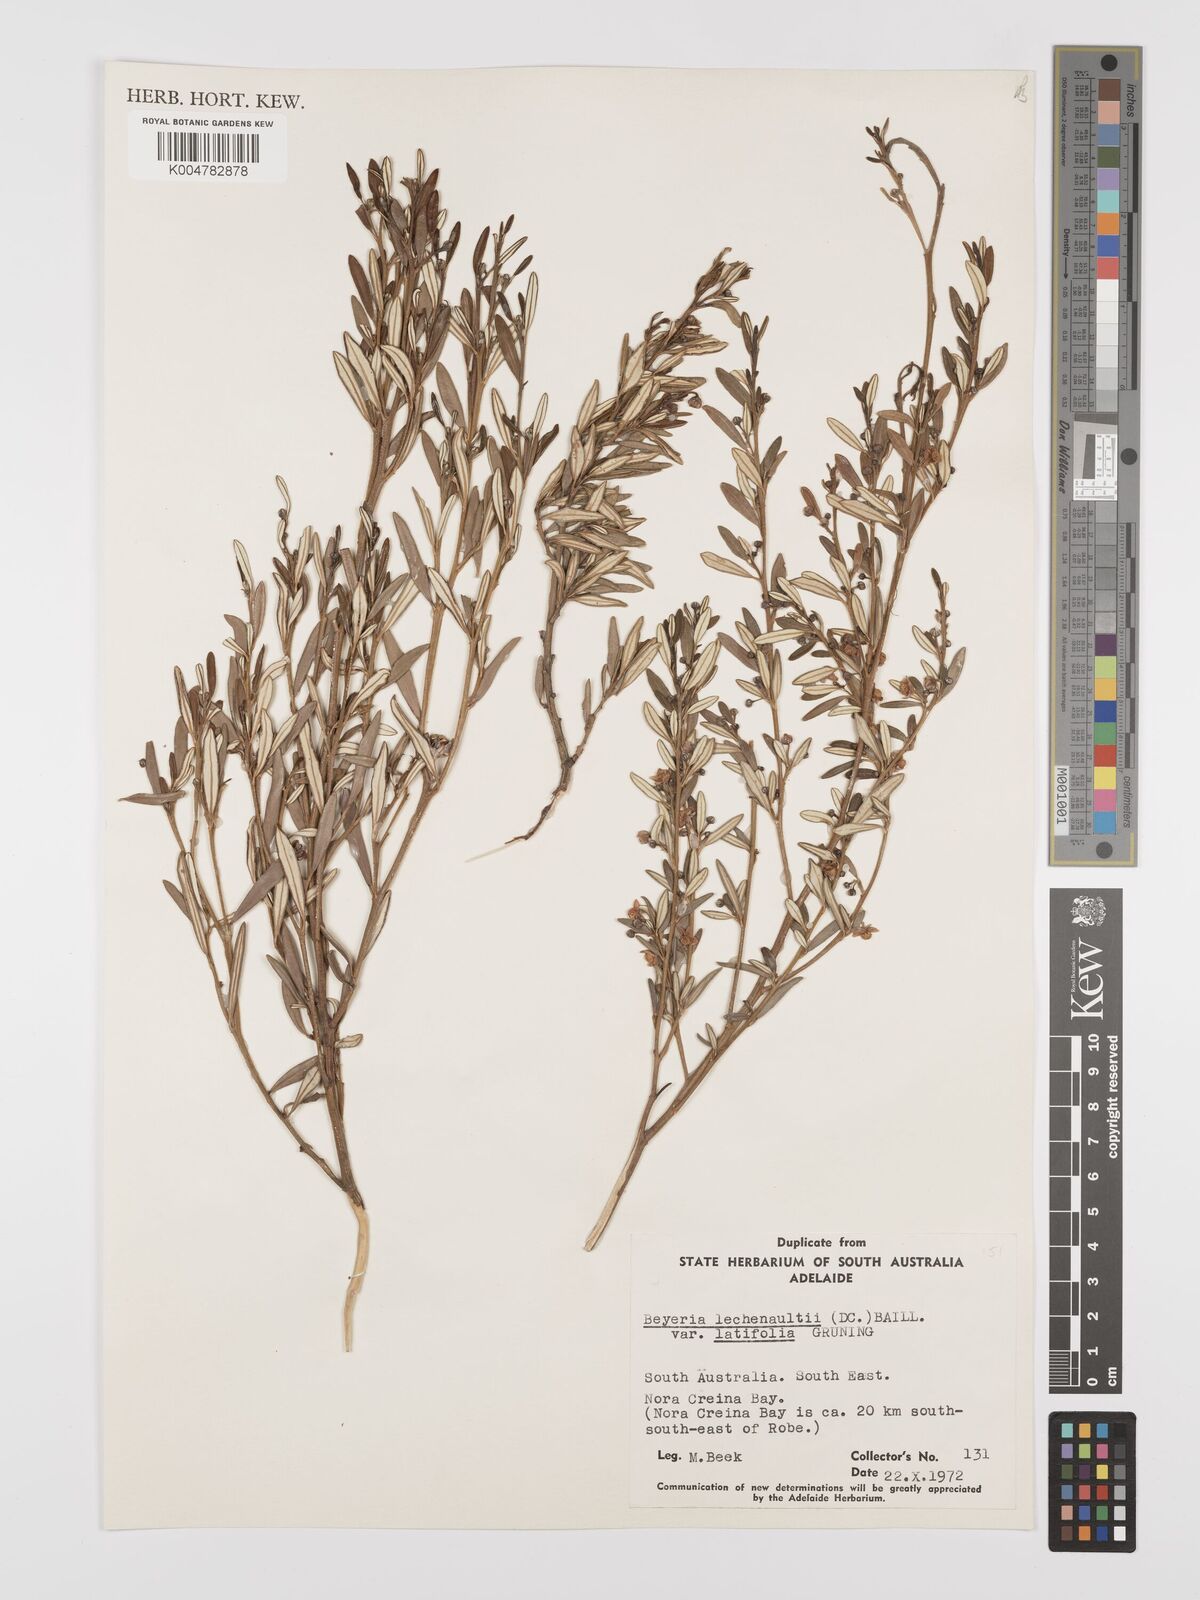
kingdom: Plantae
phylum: Tracheophyta
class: Magnoliopsida
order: Malpighiales
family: Euphorbiaceae
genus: Beyeria
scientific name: Beyeria lechenaultii
